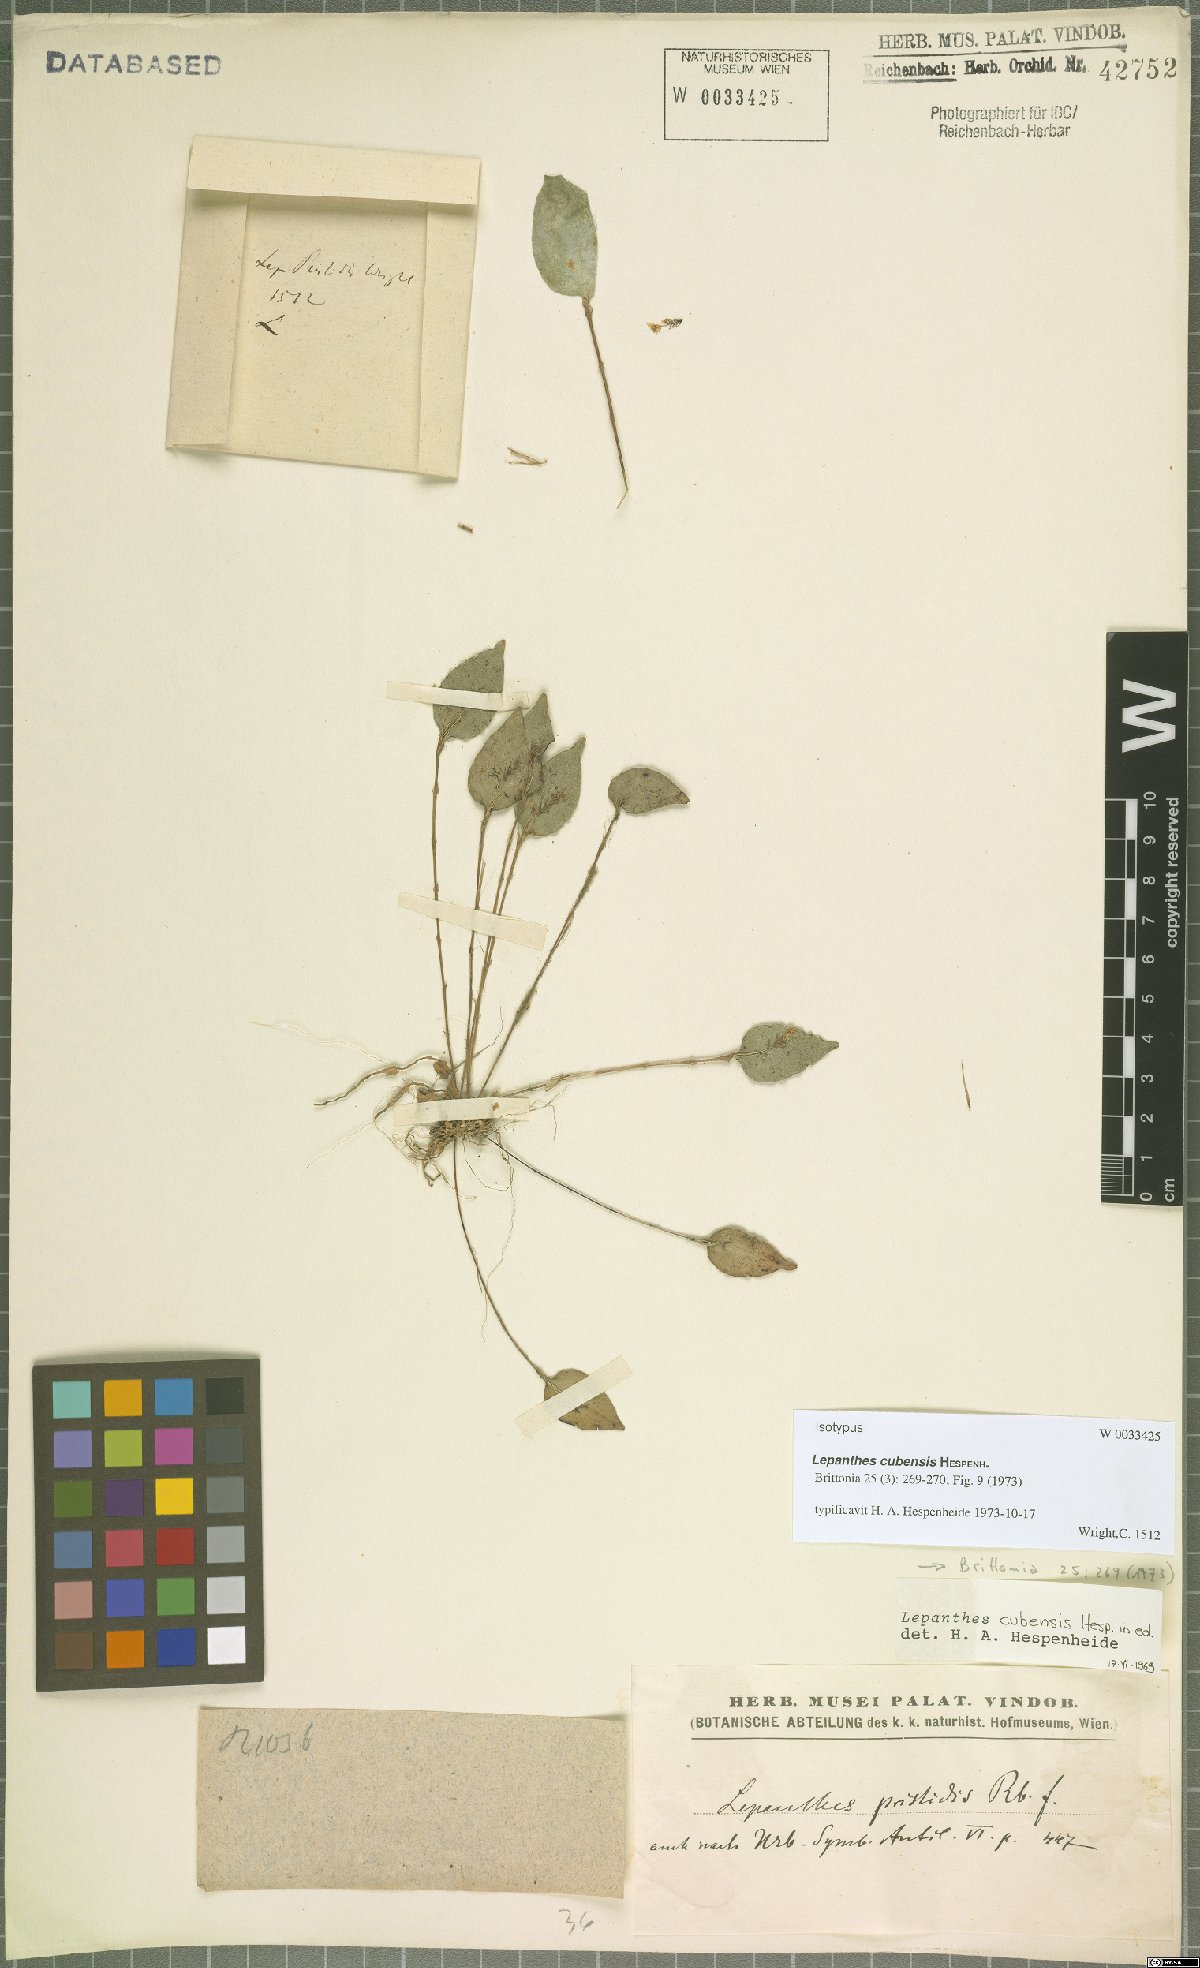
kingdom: Plantae
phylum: Tracheophyta
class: Liliopsida
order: Asparagales
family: Orchidaceae
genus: Lepanthes
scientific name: Lepanthes cubensis
